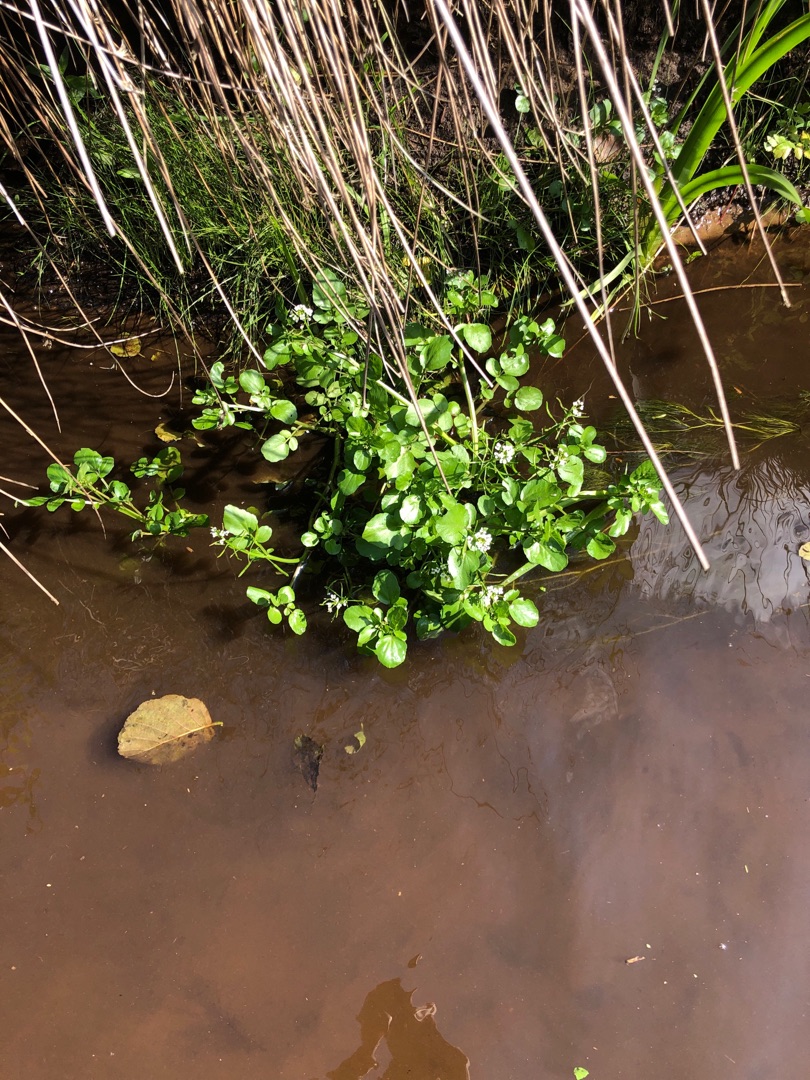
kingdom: Plantae
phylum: Tracheophyta
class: Magnoliopsida
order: Brassicales
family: Brassicaceae
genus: Nasturtium
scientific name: Nasturtium
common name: Brøndkarseslægten
